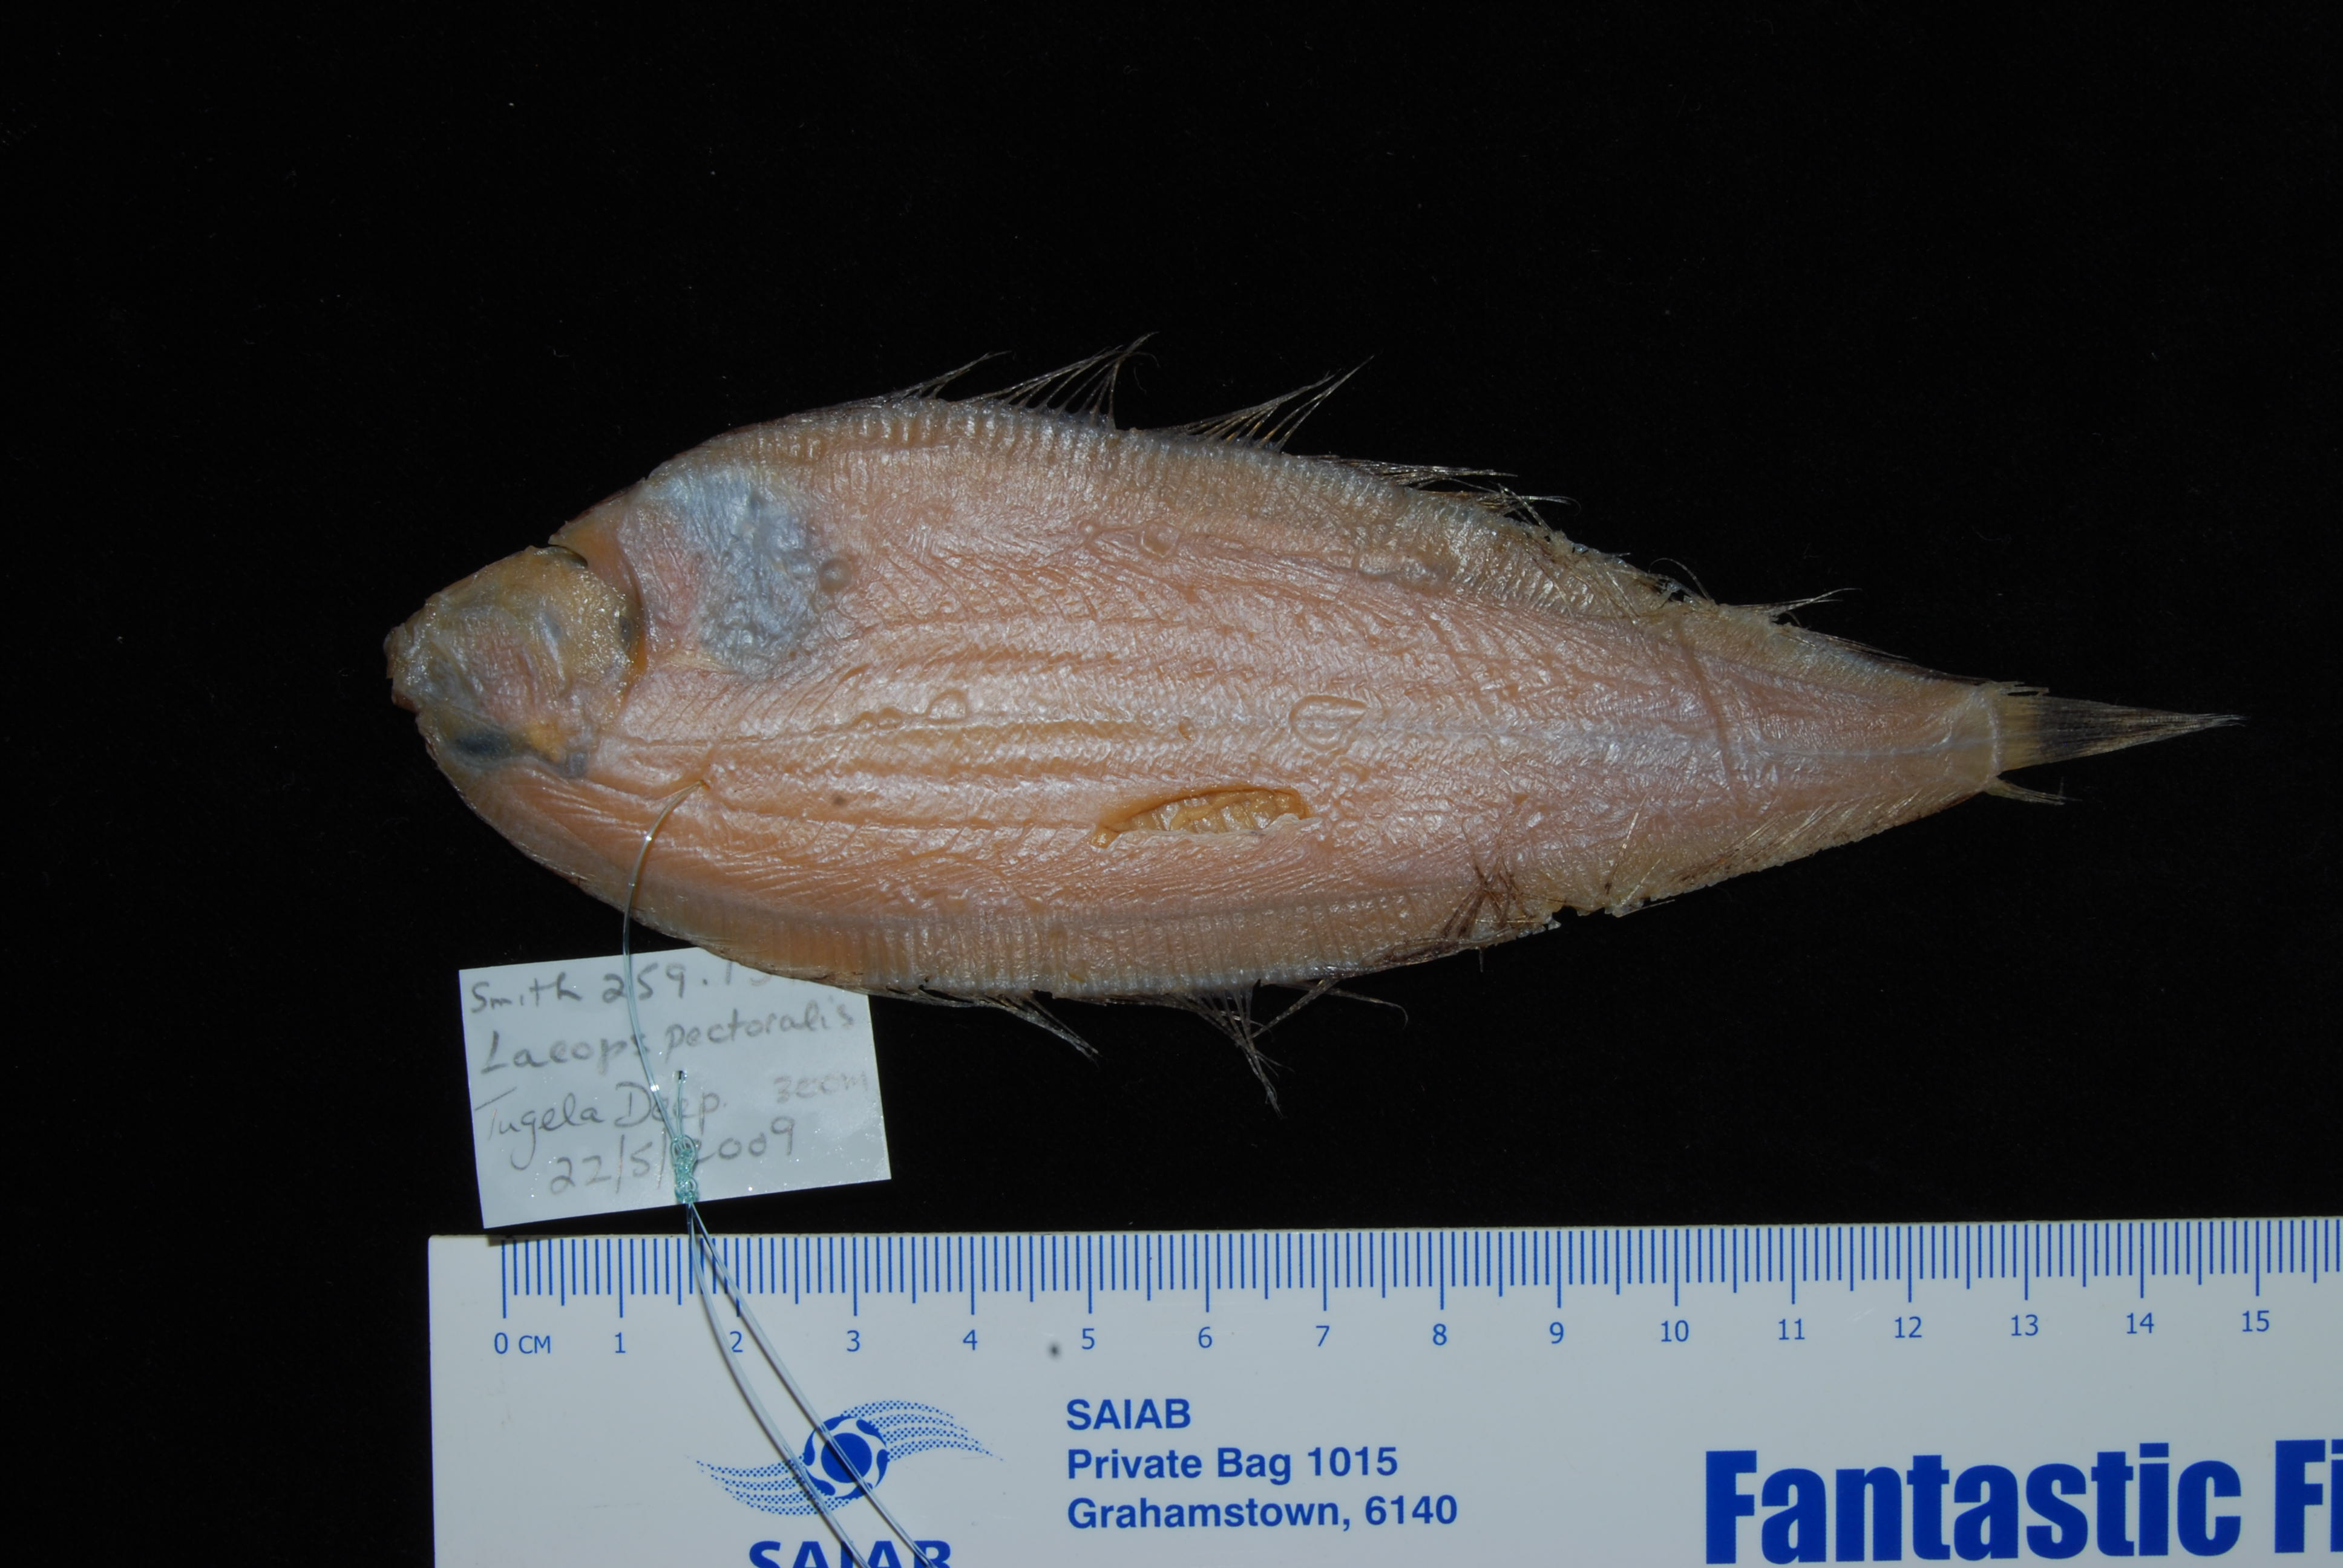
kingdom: Animalia
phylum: Chordata
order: Pleuronectiformes
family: Bothidae
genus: Laeops
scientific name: Laeops pectoralis
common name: Longarm flounder
